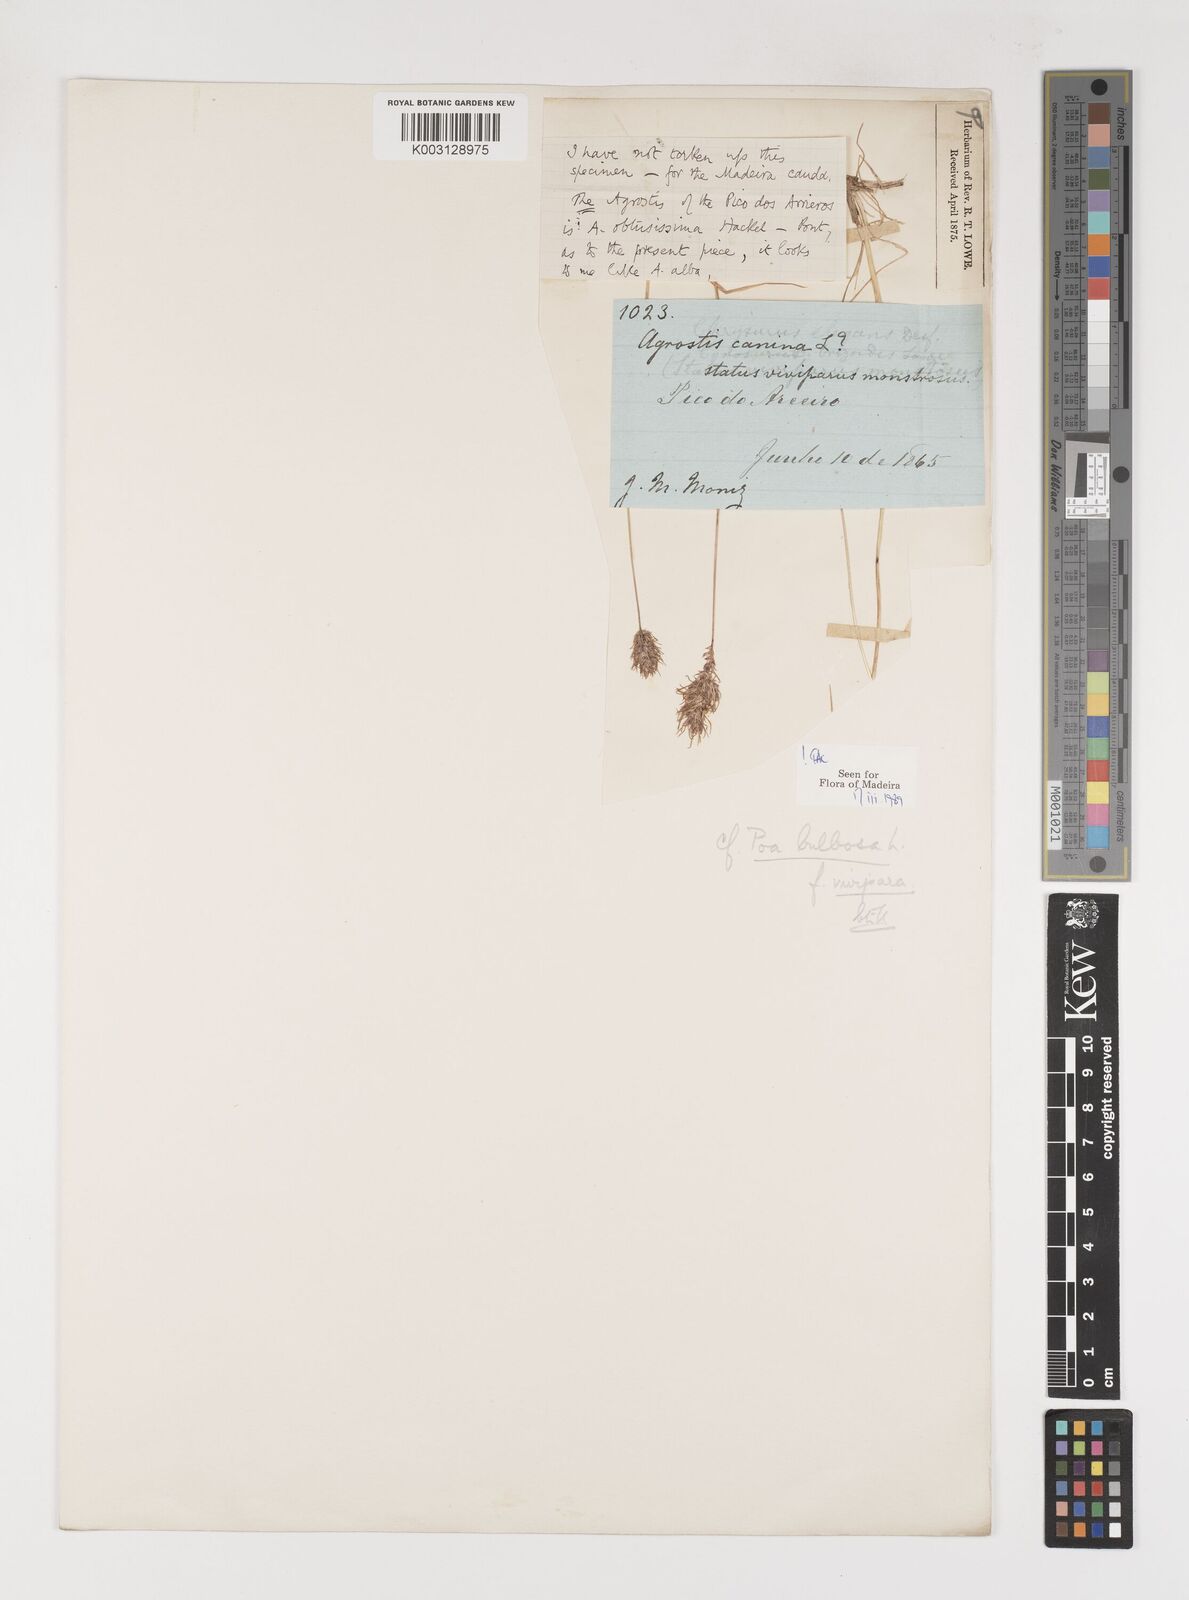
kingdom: Plantae
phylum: Tracheophyta
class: Liliopsida
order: Poales
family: Poaceae
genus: Poa
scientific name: Poa bulbosa
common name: Bulbous bluegrass
